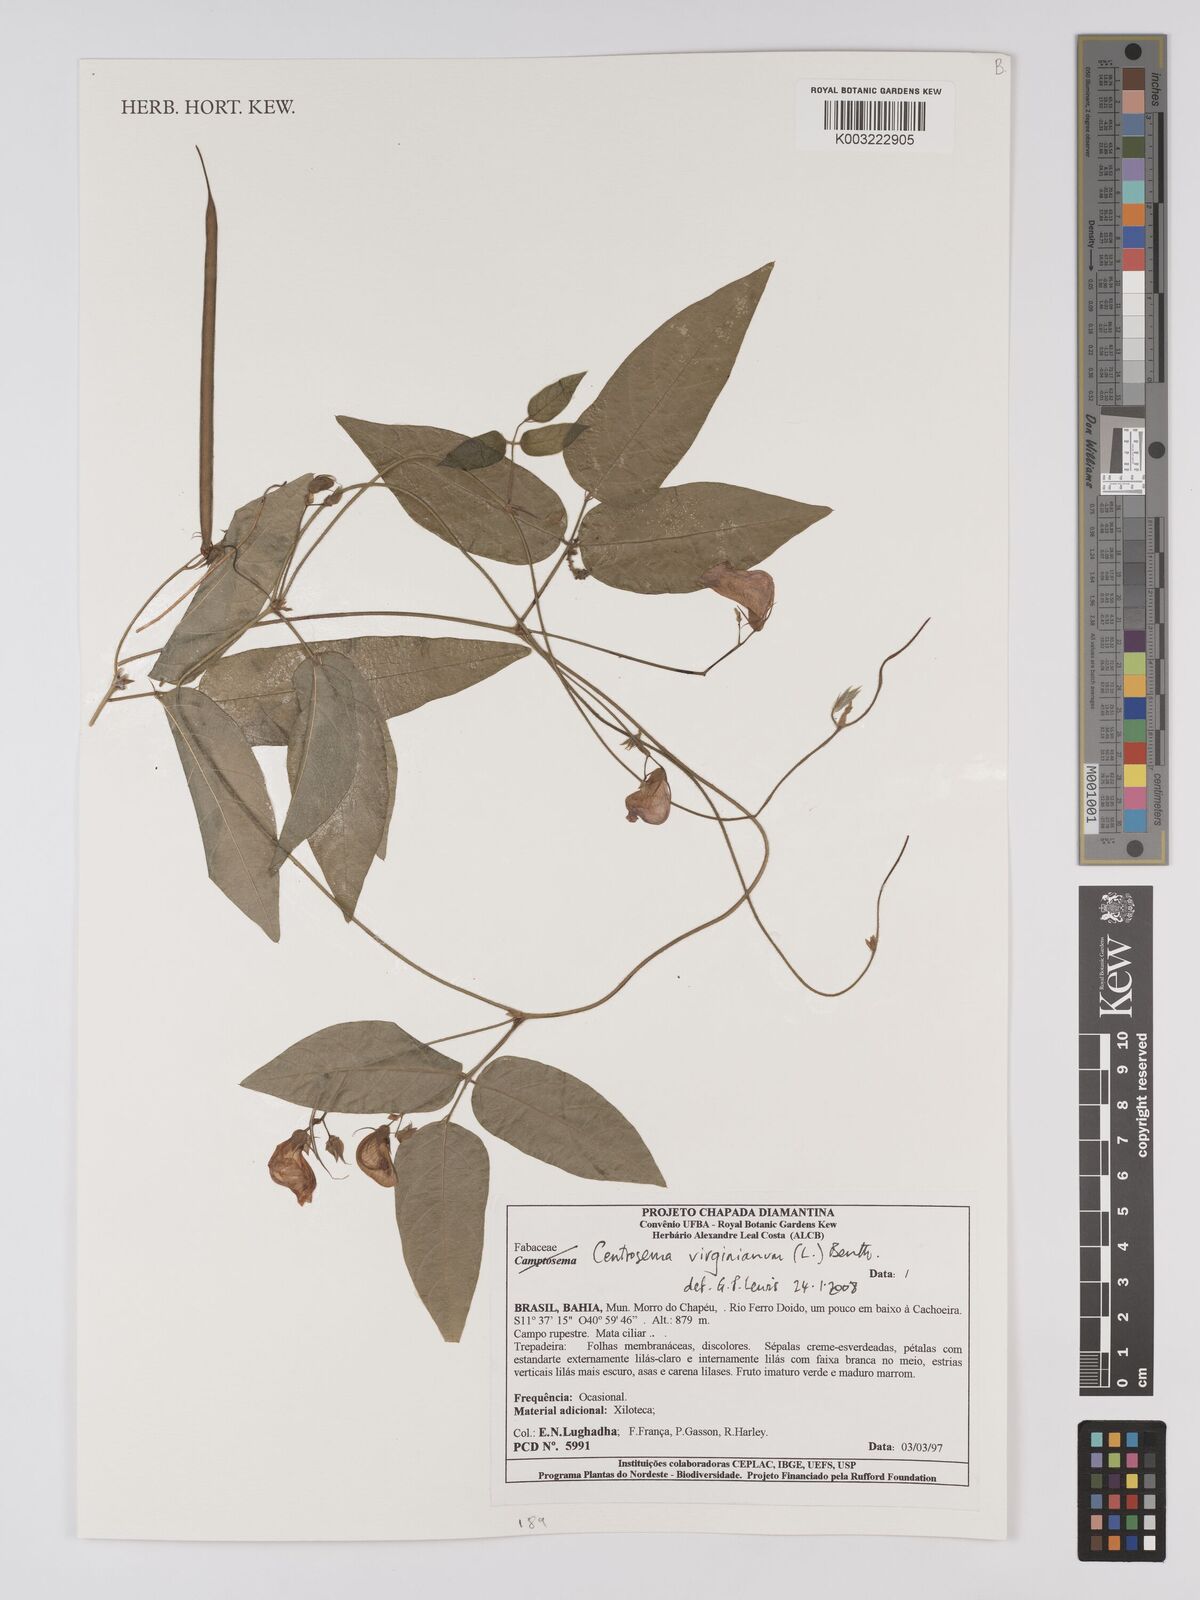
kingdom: Plantae
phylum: Tracheophyta
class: Magnoliopsida
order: Fabales
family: Fabaceae
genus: Centrosema
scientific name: Centrosema virginianum
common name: Butterfly-pea
